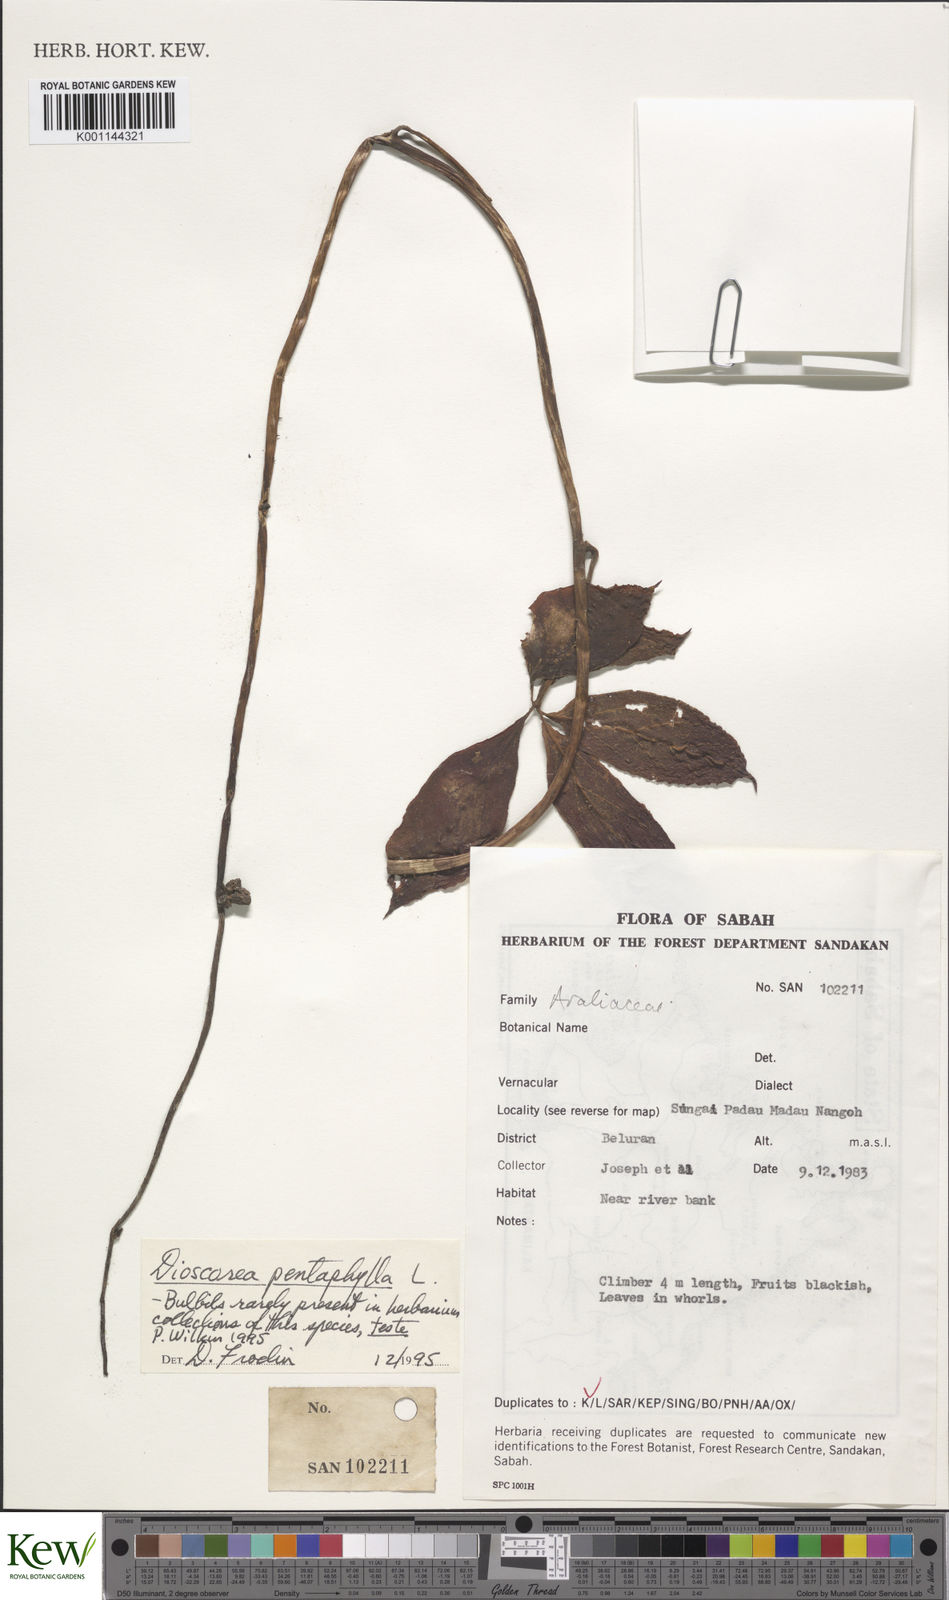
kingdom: Plantae
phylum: Tracheophyta
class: Liliopsida
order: Dioscoreales
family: Dioscoreaceae
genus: Dioscorea
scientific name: Dioscorea pentaphylla
